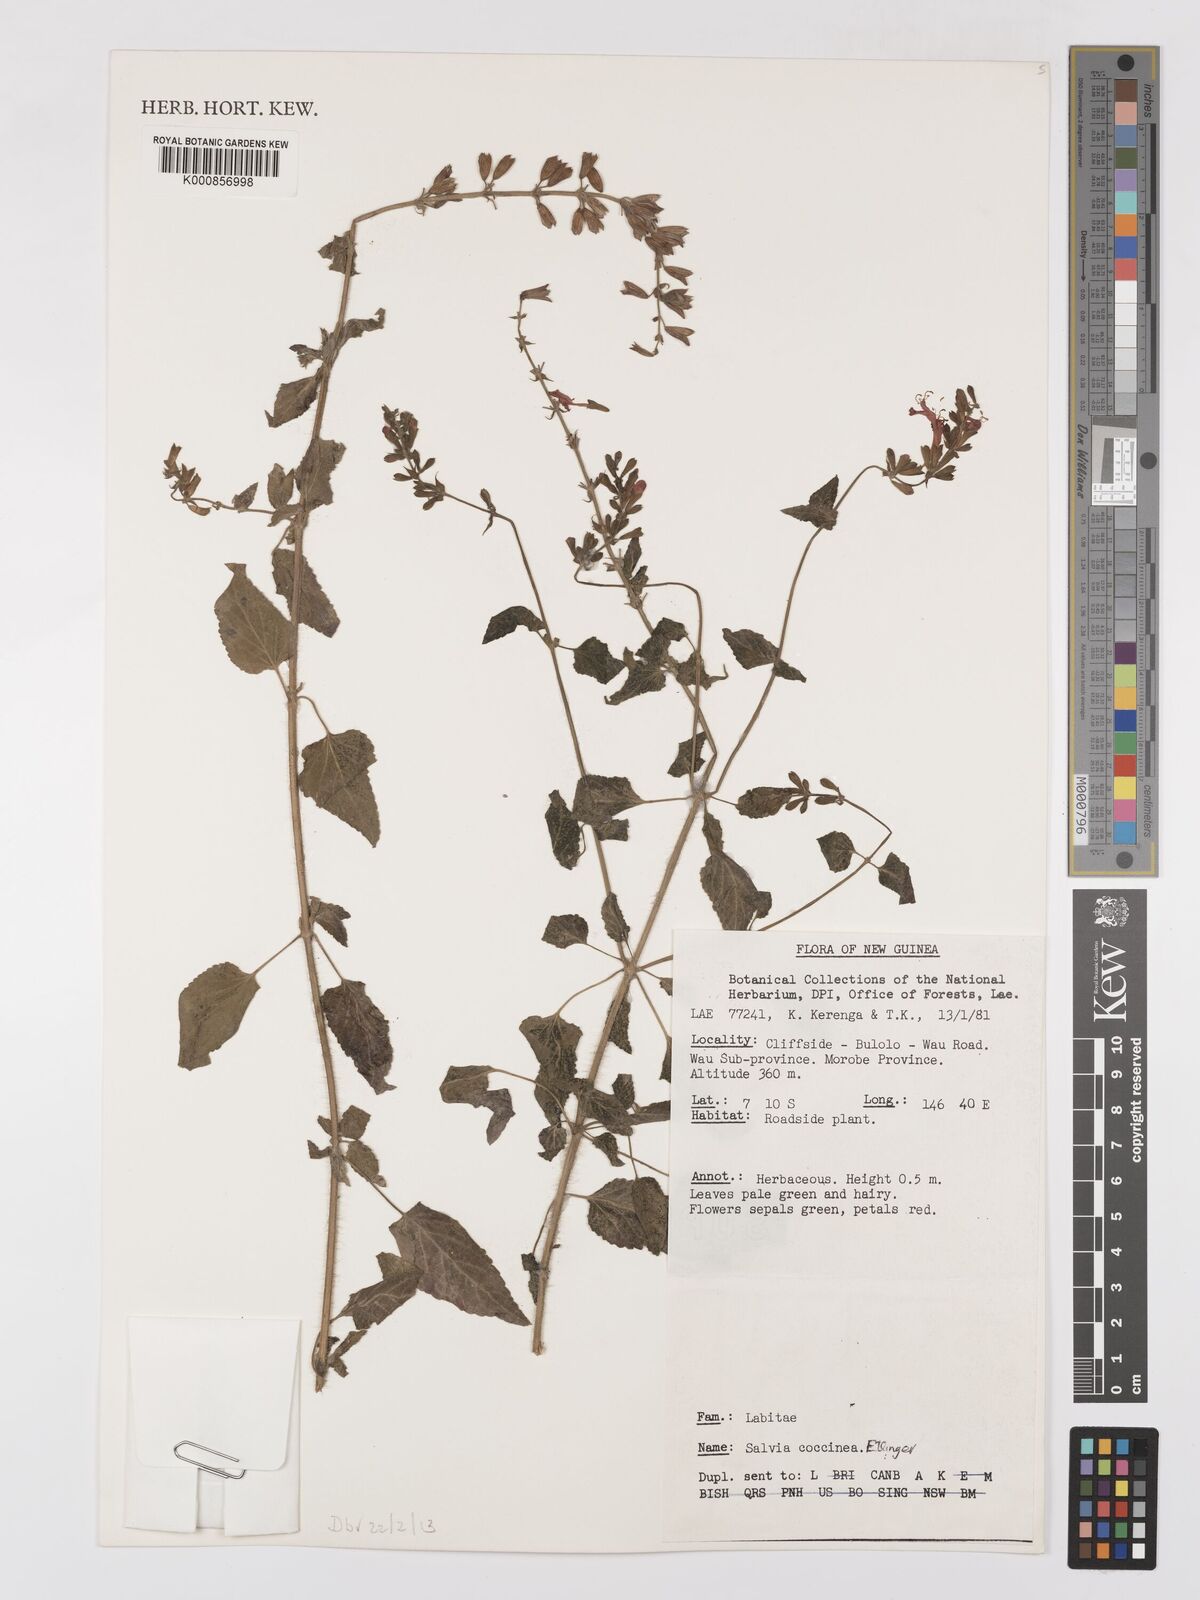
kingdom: Plantae
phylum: Tracheophyta
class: Magnoliopsida
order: Lamiales
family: Lamiaceae
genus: Salvia
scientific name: Salvia coccinea
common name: Blood sage
